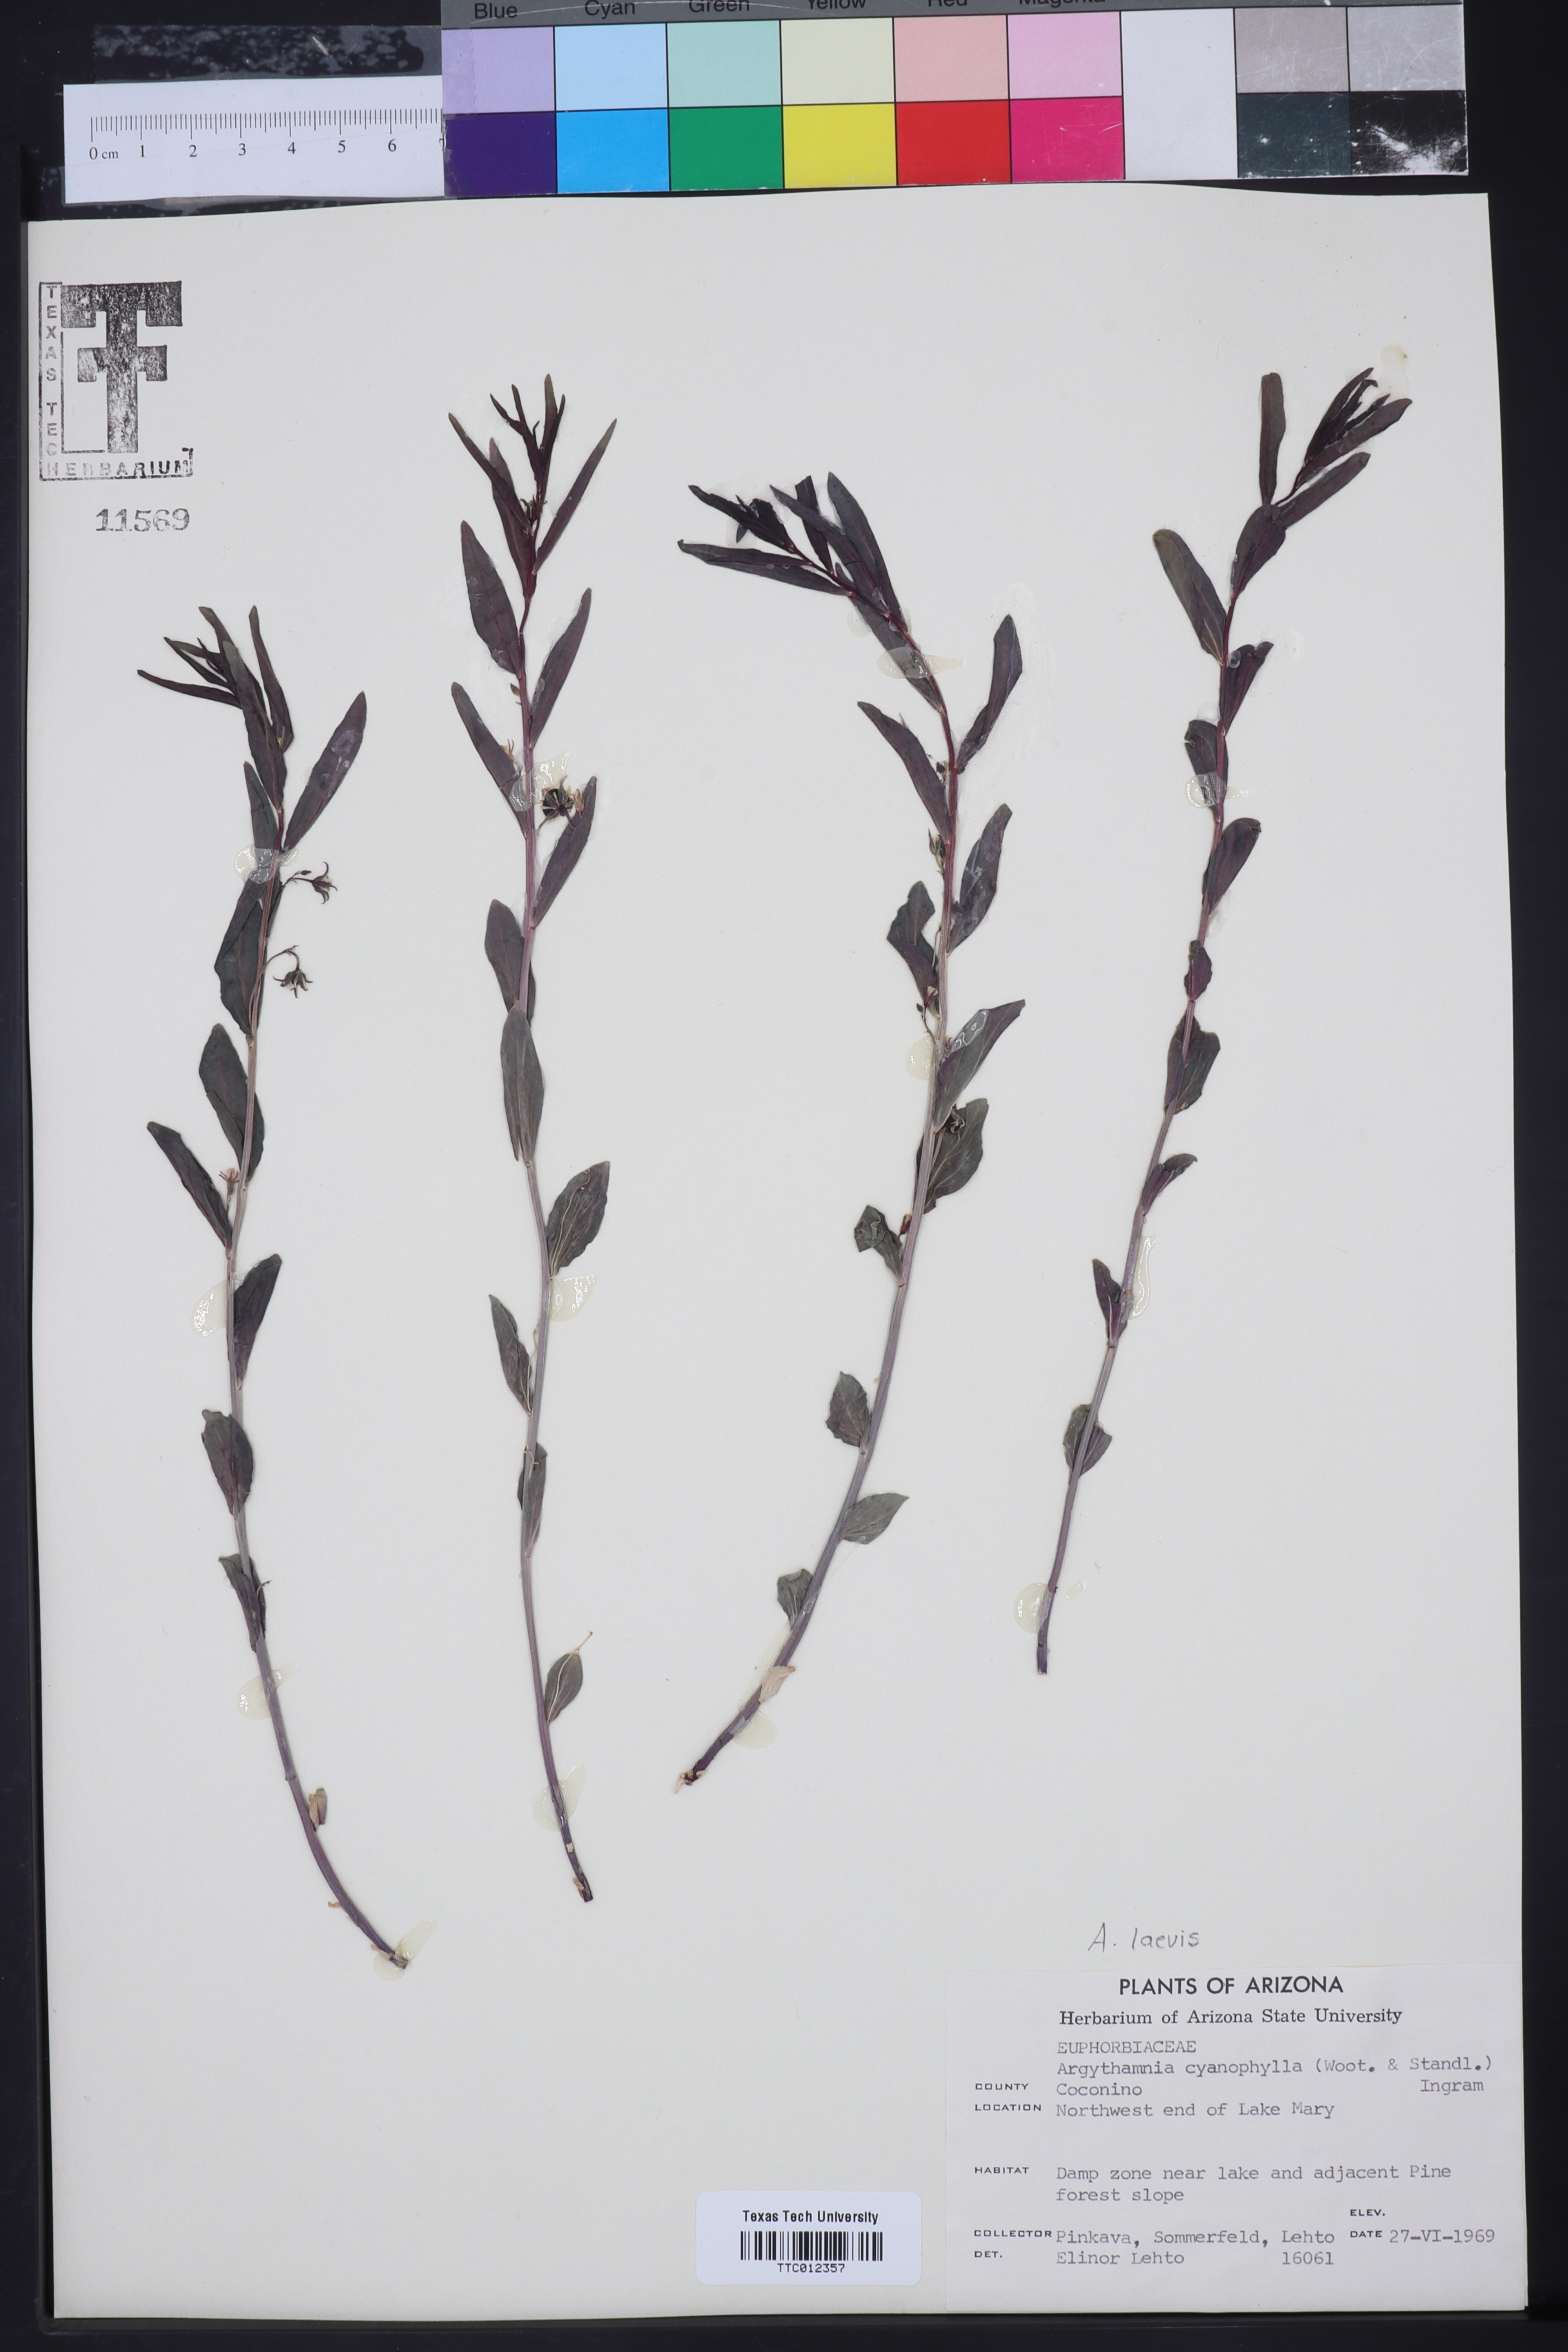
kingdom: Plantae
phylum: Tracheophyta
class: Magnoliopsida
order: Malpighiales
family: Euphorbiaceae
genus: Ditaxis
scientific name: Ditaxis cyanophylla
